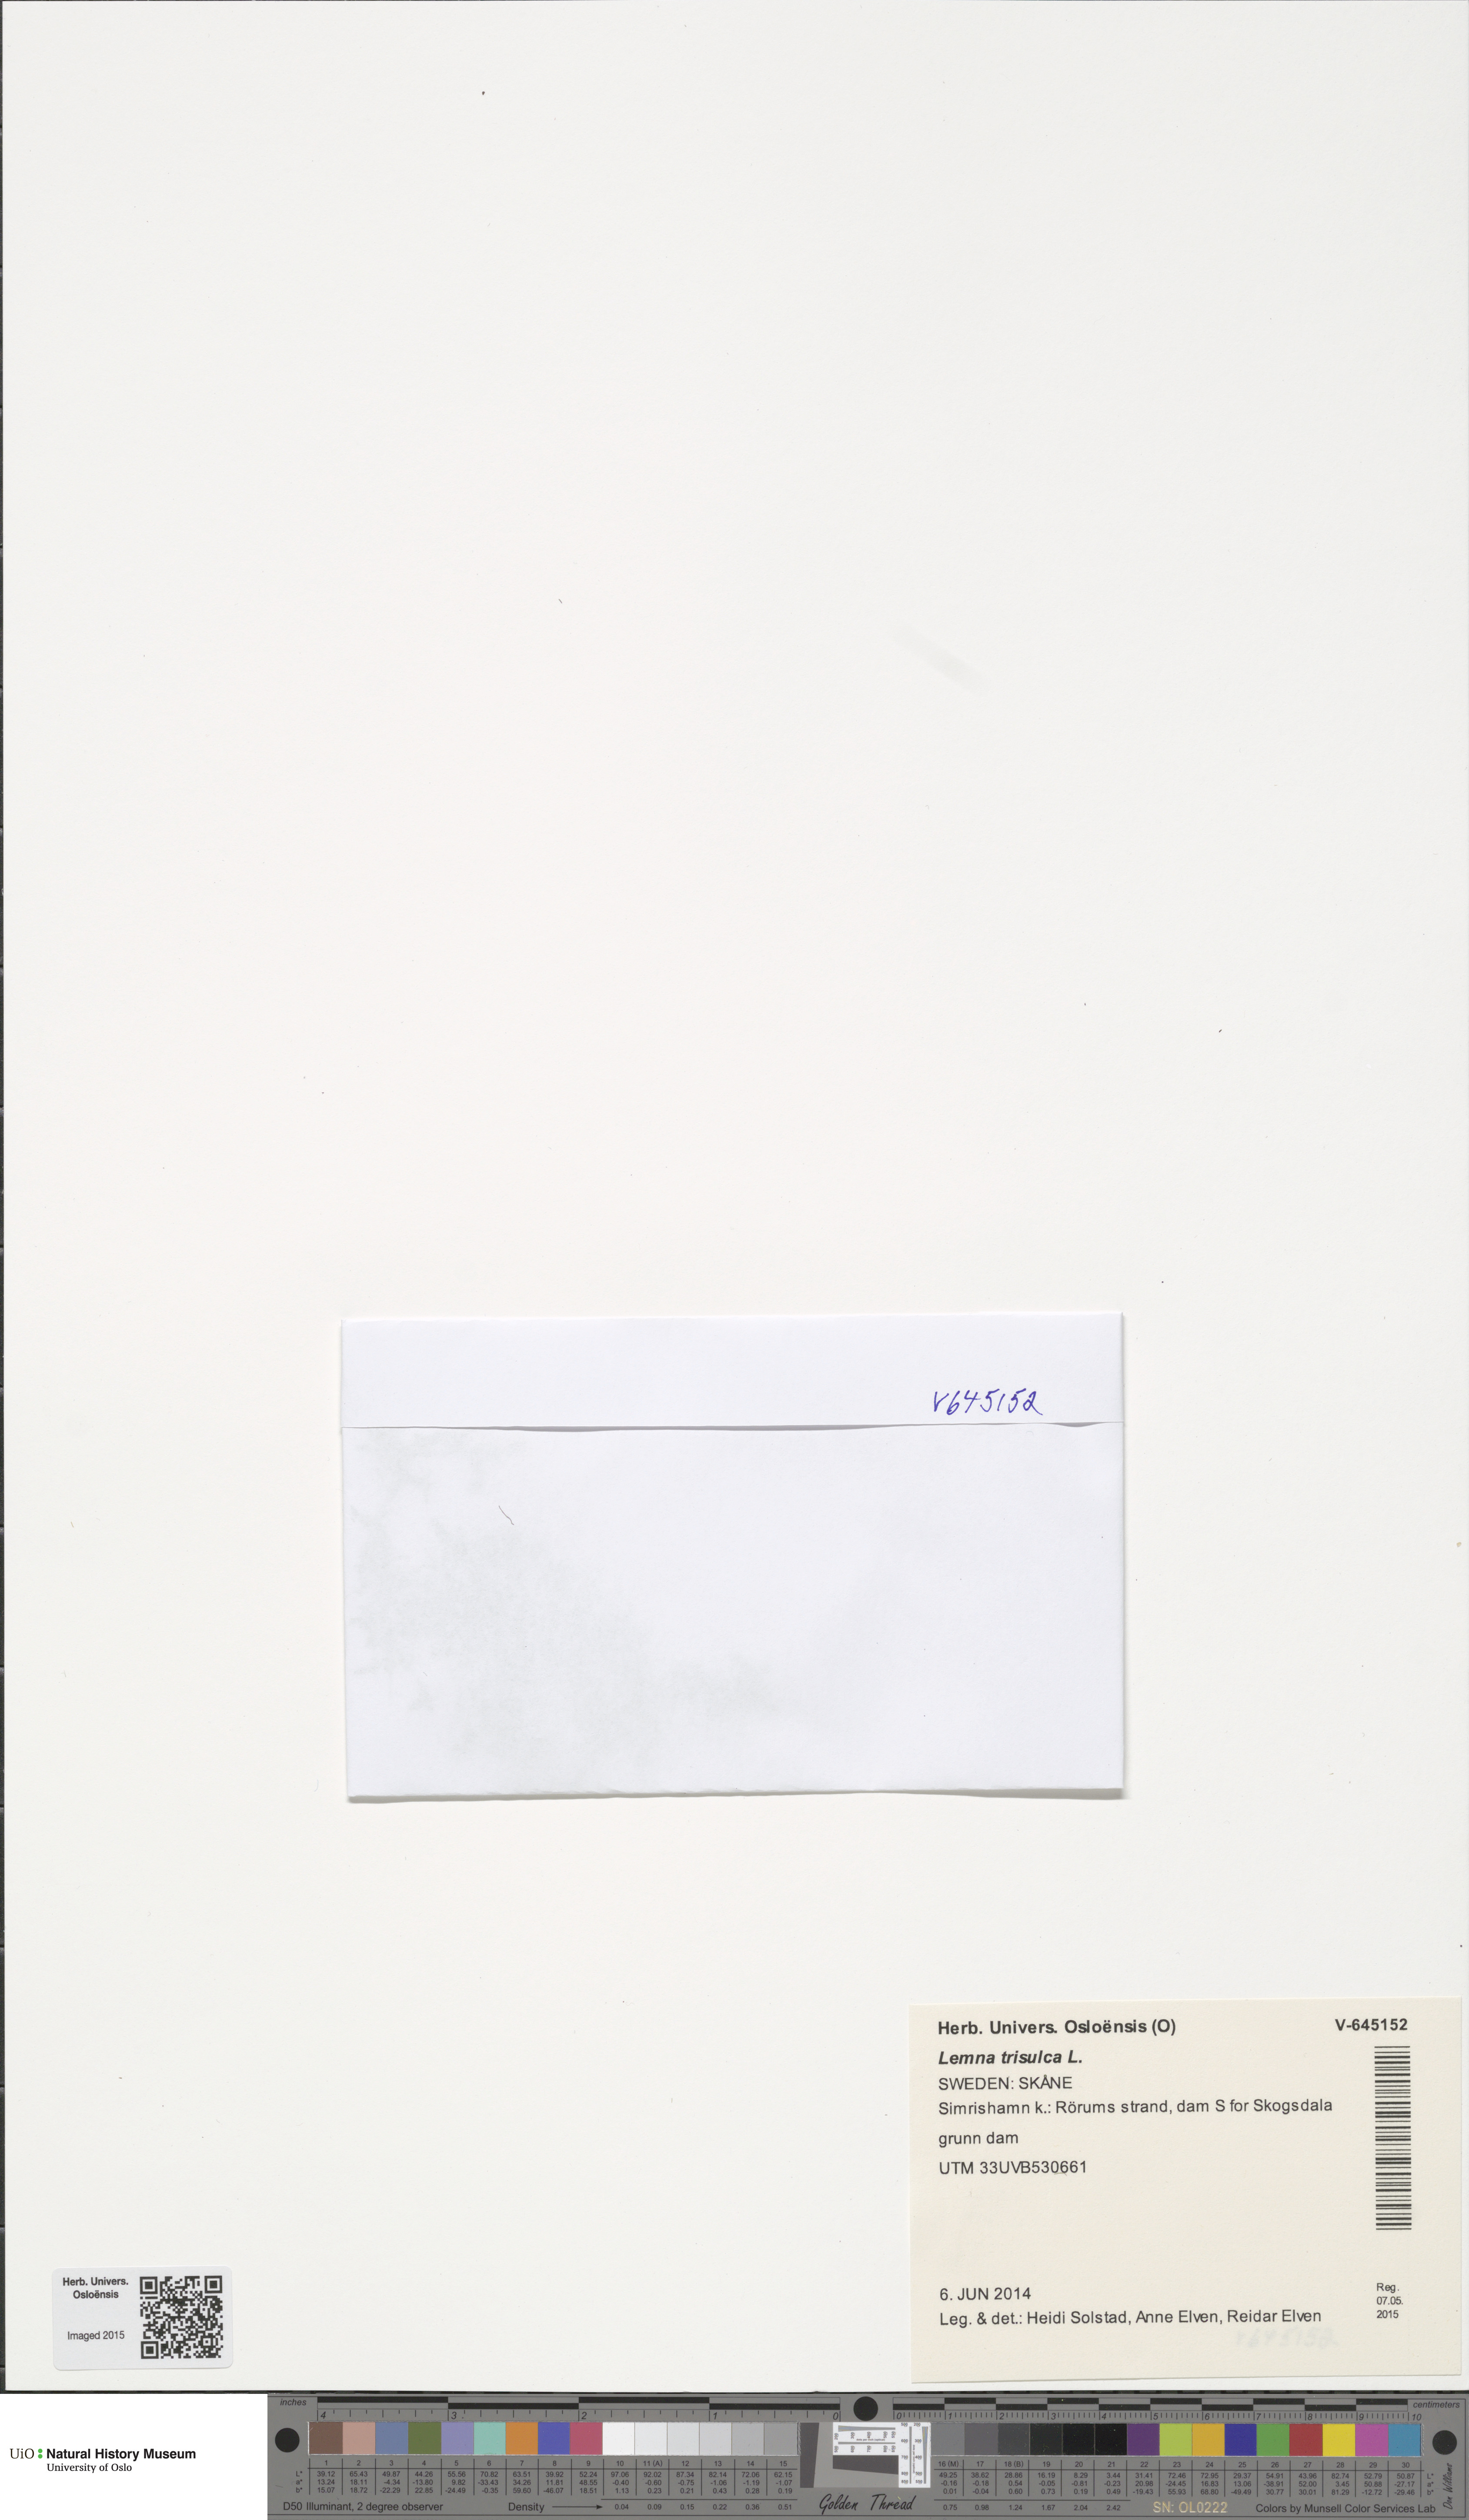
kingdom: Plantae
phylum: Tracheophyta
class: Liliopsida
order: Alismatales
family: Araceae
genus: Lemna
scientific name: Lemna trisulca
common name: Ivy-leaved duckweed
